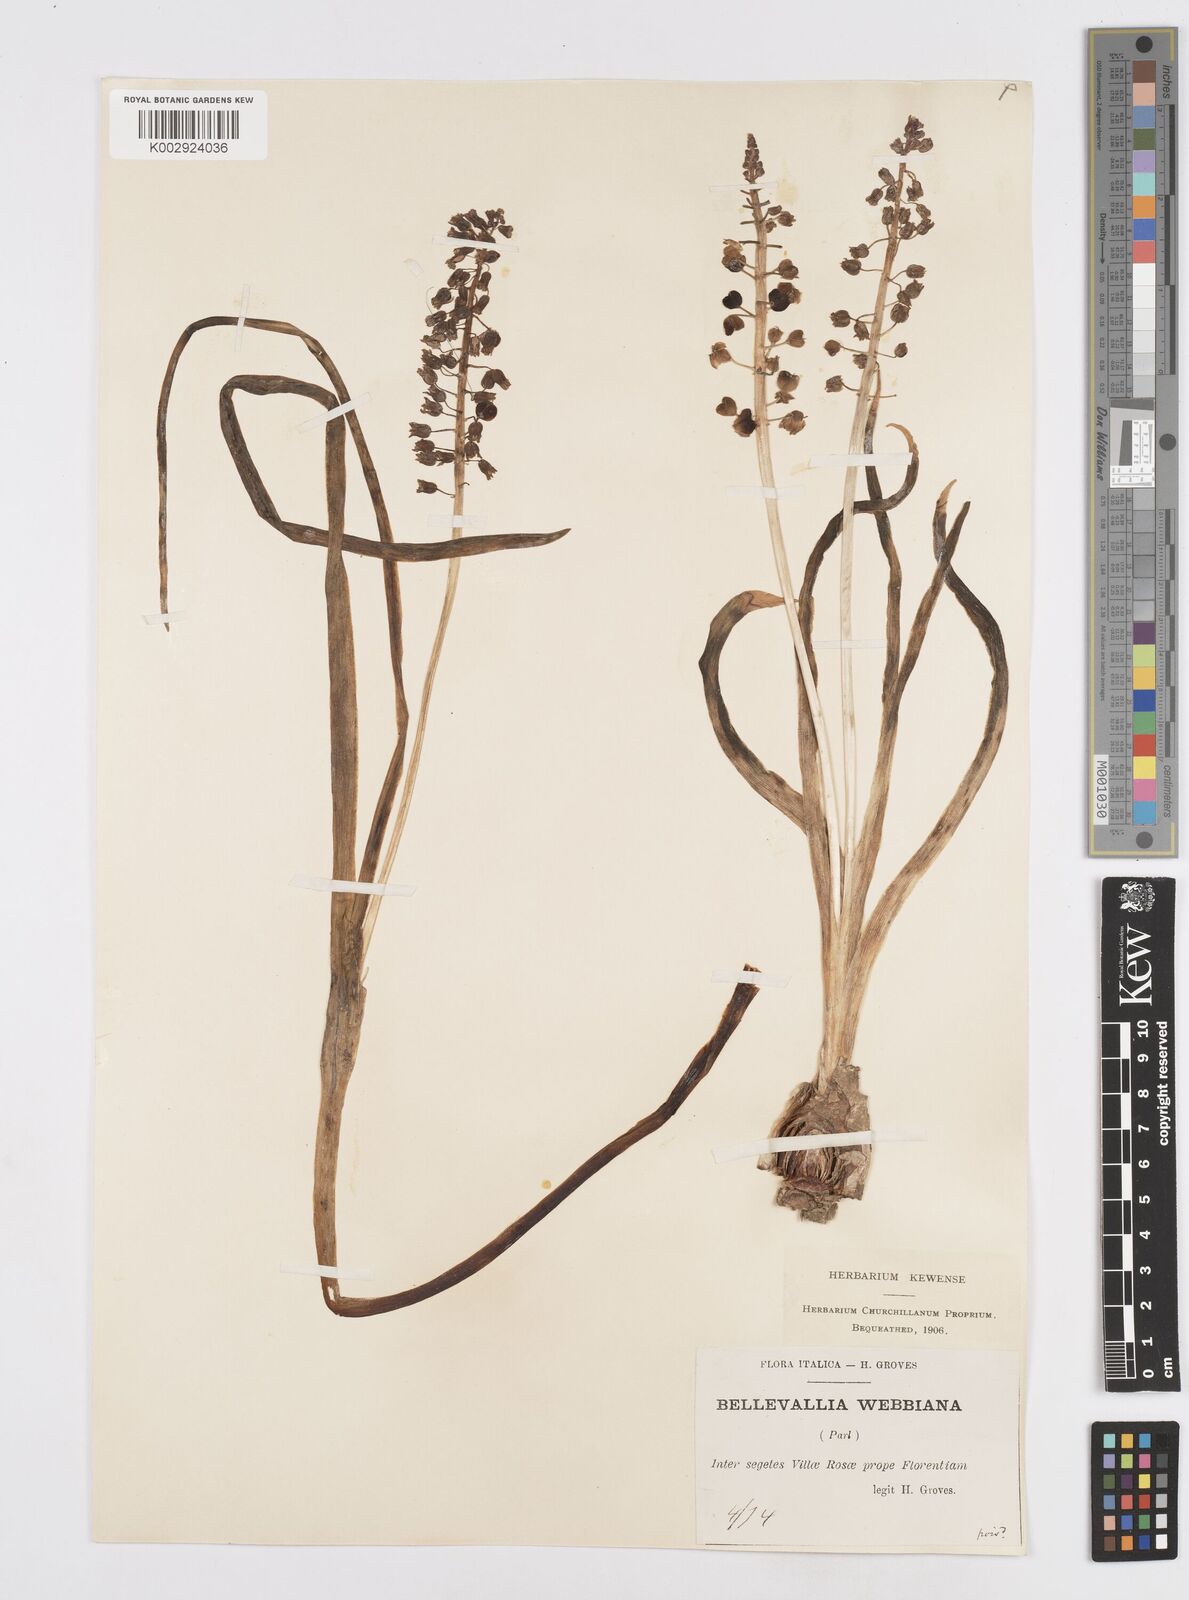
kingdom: Plantae
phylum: Tracheophyta
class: Liliopsida
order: Asparagales
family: Asparagaceae
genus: Bellevalia
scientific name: Bellevalia dubia
